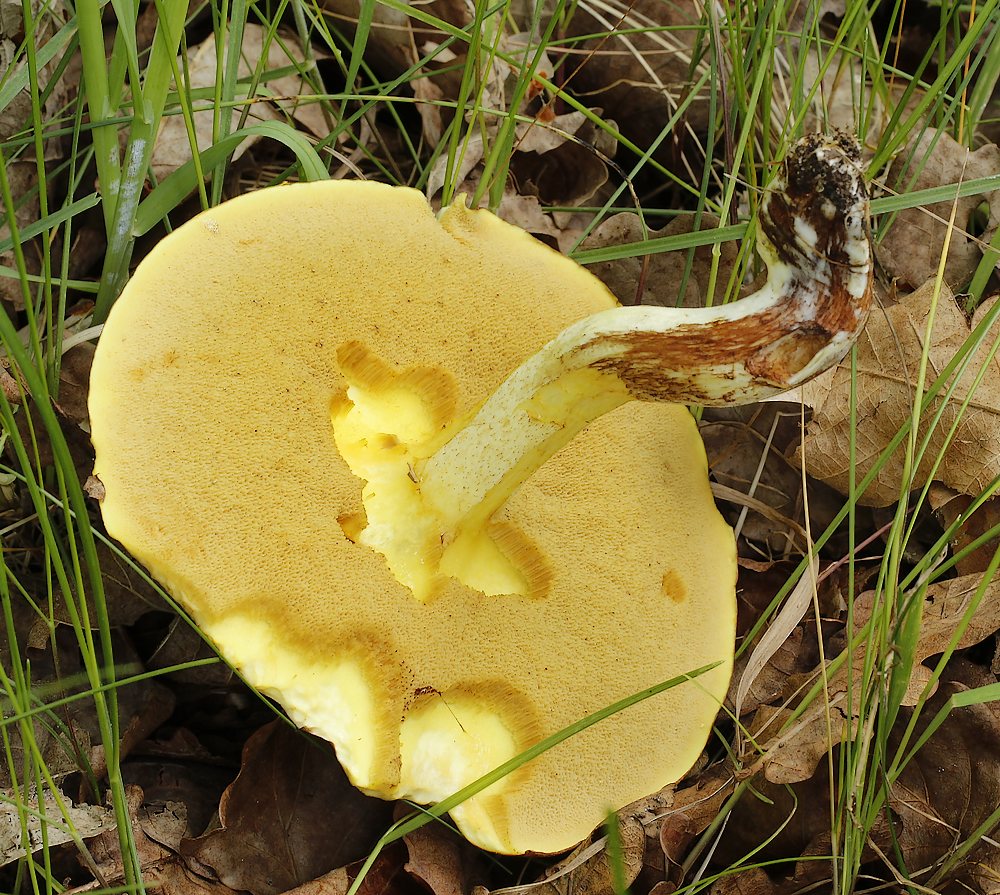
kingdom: Fungi
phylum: Basidiomycota
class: Agaricomycetes
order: Boletales
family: Suillaceae
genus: Suillus
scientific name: Suillus granulatus
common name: kornet slimrørhat
